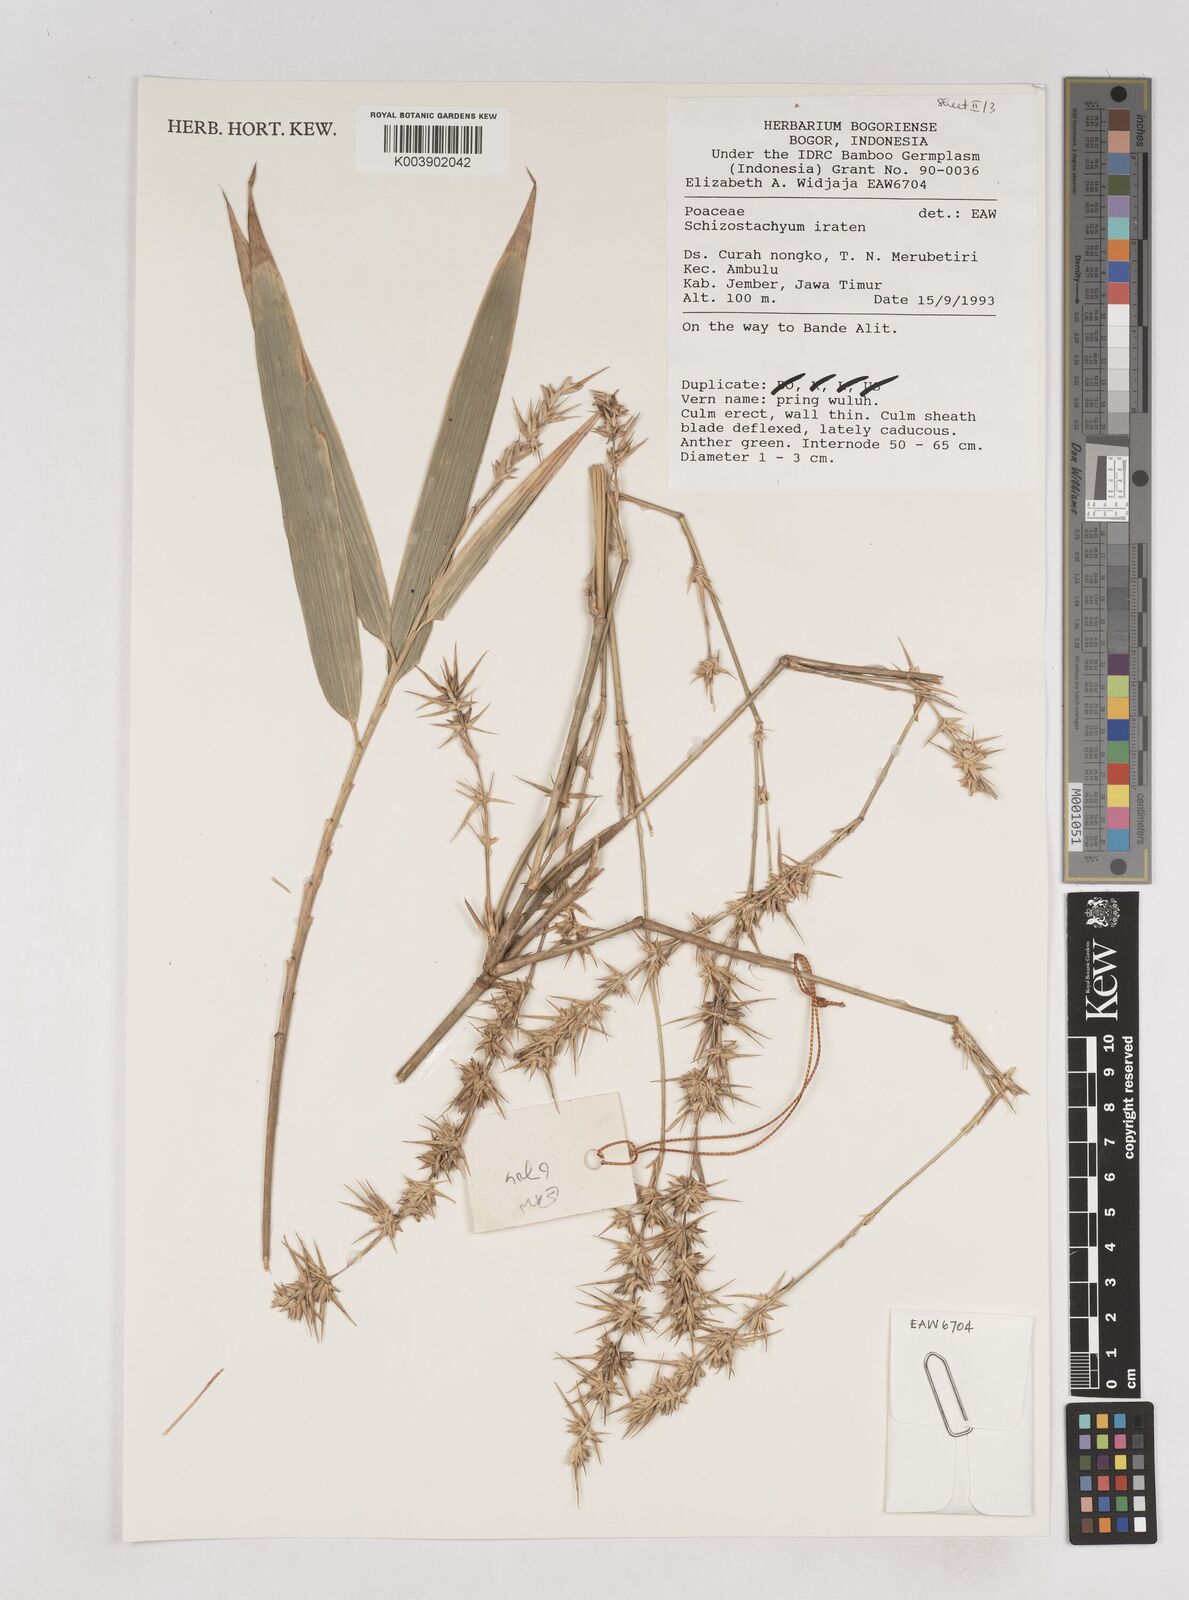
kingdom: Plantae
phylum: Tracheophyta
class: Liliopsida
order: Poales
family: Poaceae
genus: Schizostachyum
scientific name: Schizostachyum iraten
